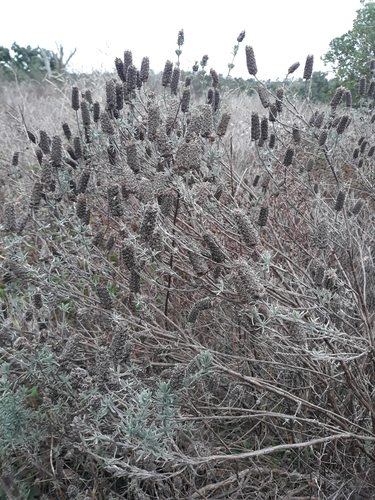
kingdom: Plantae
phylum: Tracheophyta
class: Magnoliopsida
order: Lamiales
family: Lamiaceae
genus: Lavandula
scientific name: Lavandula stoechas
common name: French lavender
